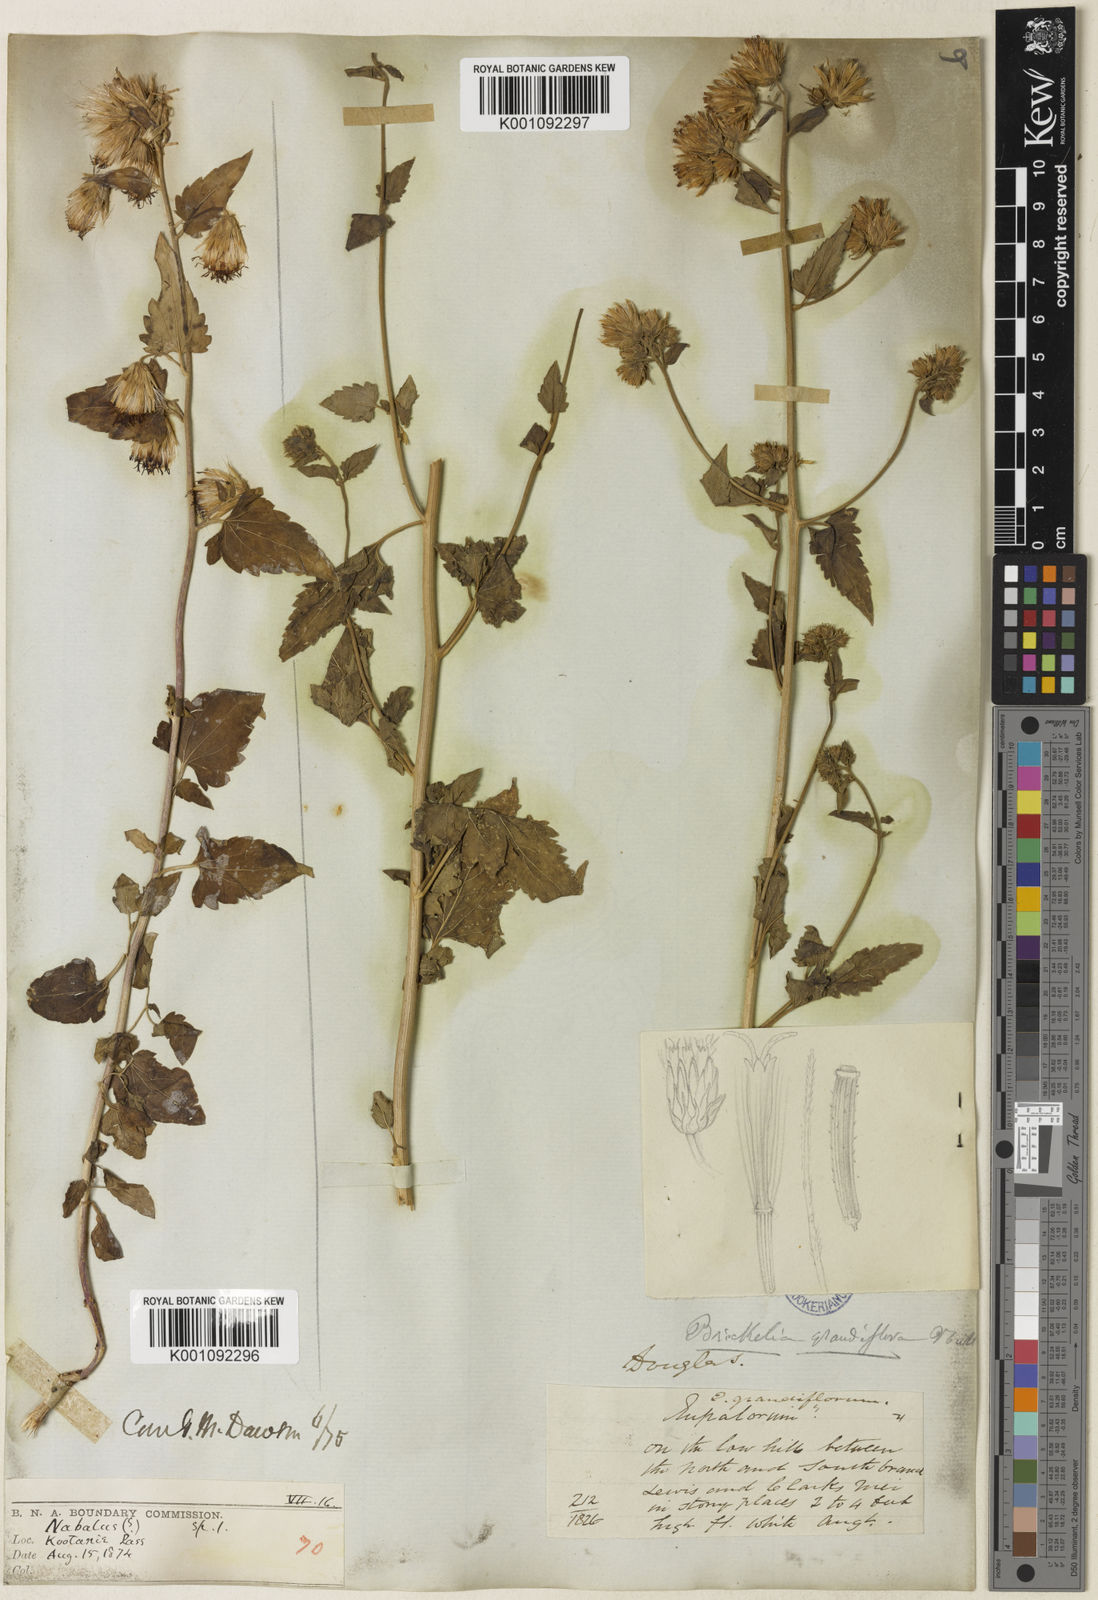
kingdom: Plantae
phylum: Tracheophyta
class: Magnoliopsida
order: Asterales
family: Asteraceae
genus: Brickellia
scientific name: Brickellia grandiflora
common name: Large-flowered brickellia
